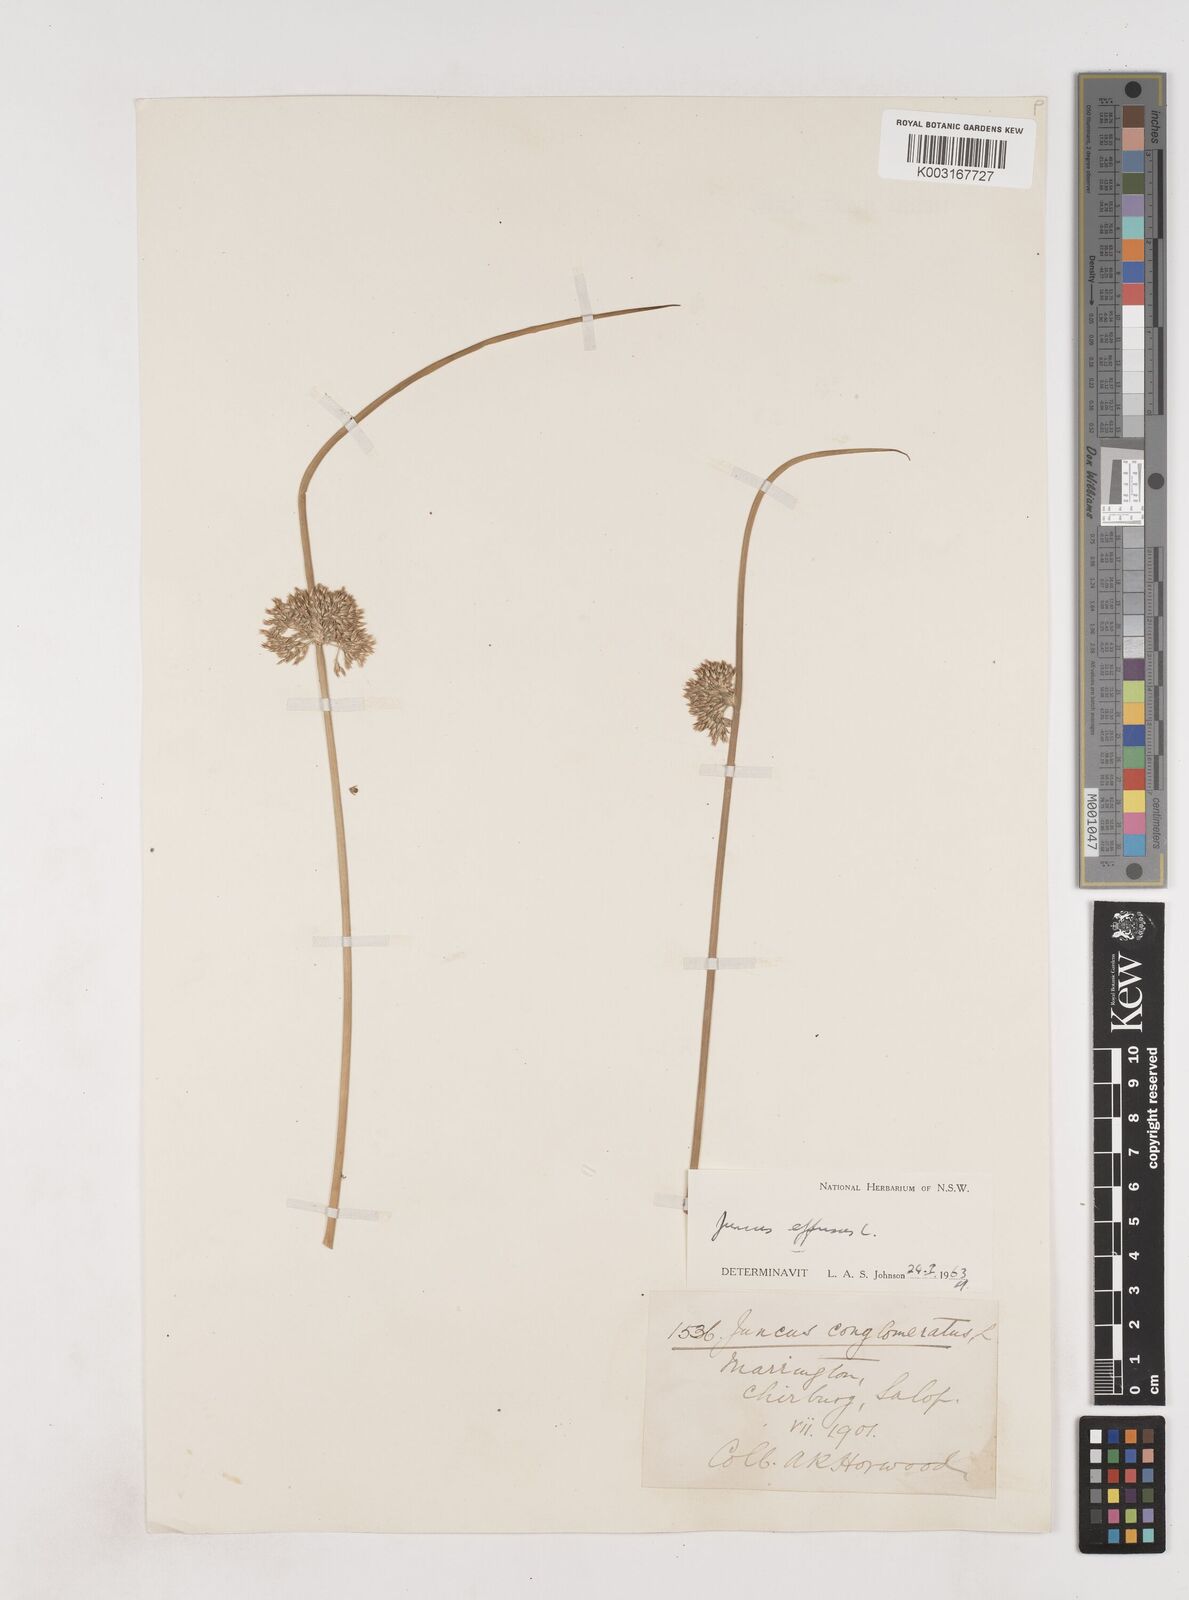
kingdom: Plantae
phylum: Tracheophyta
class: Liliopsida
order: Poales
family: Juncaceae
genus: Juncus
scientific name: Juncus effusus
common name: Soft rush
